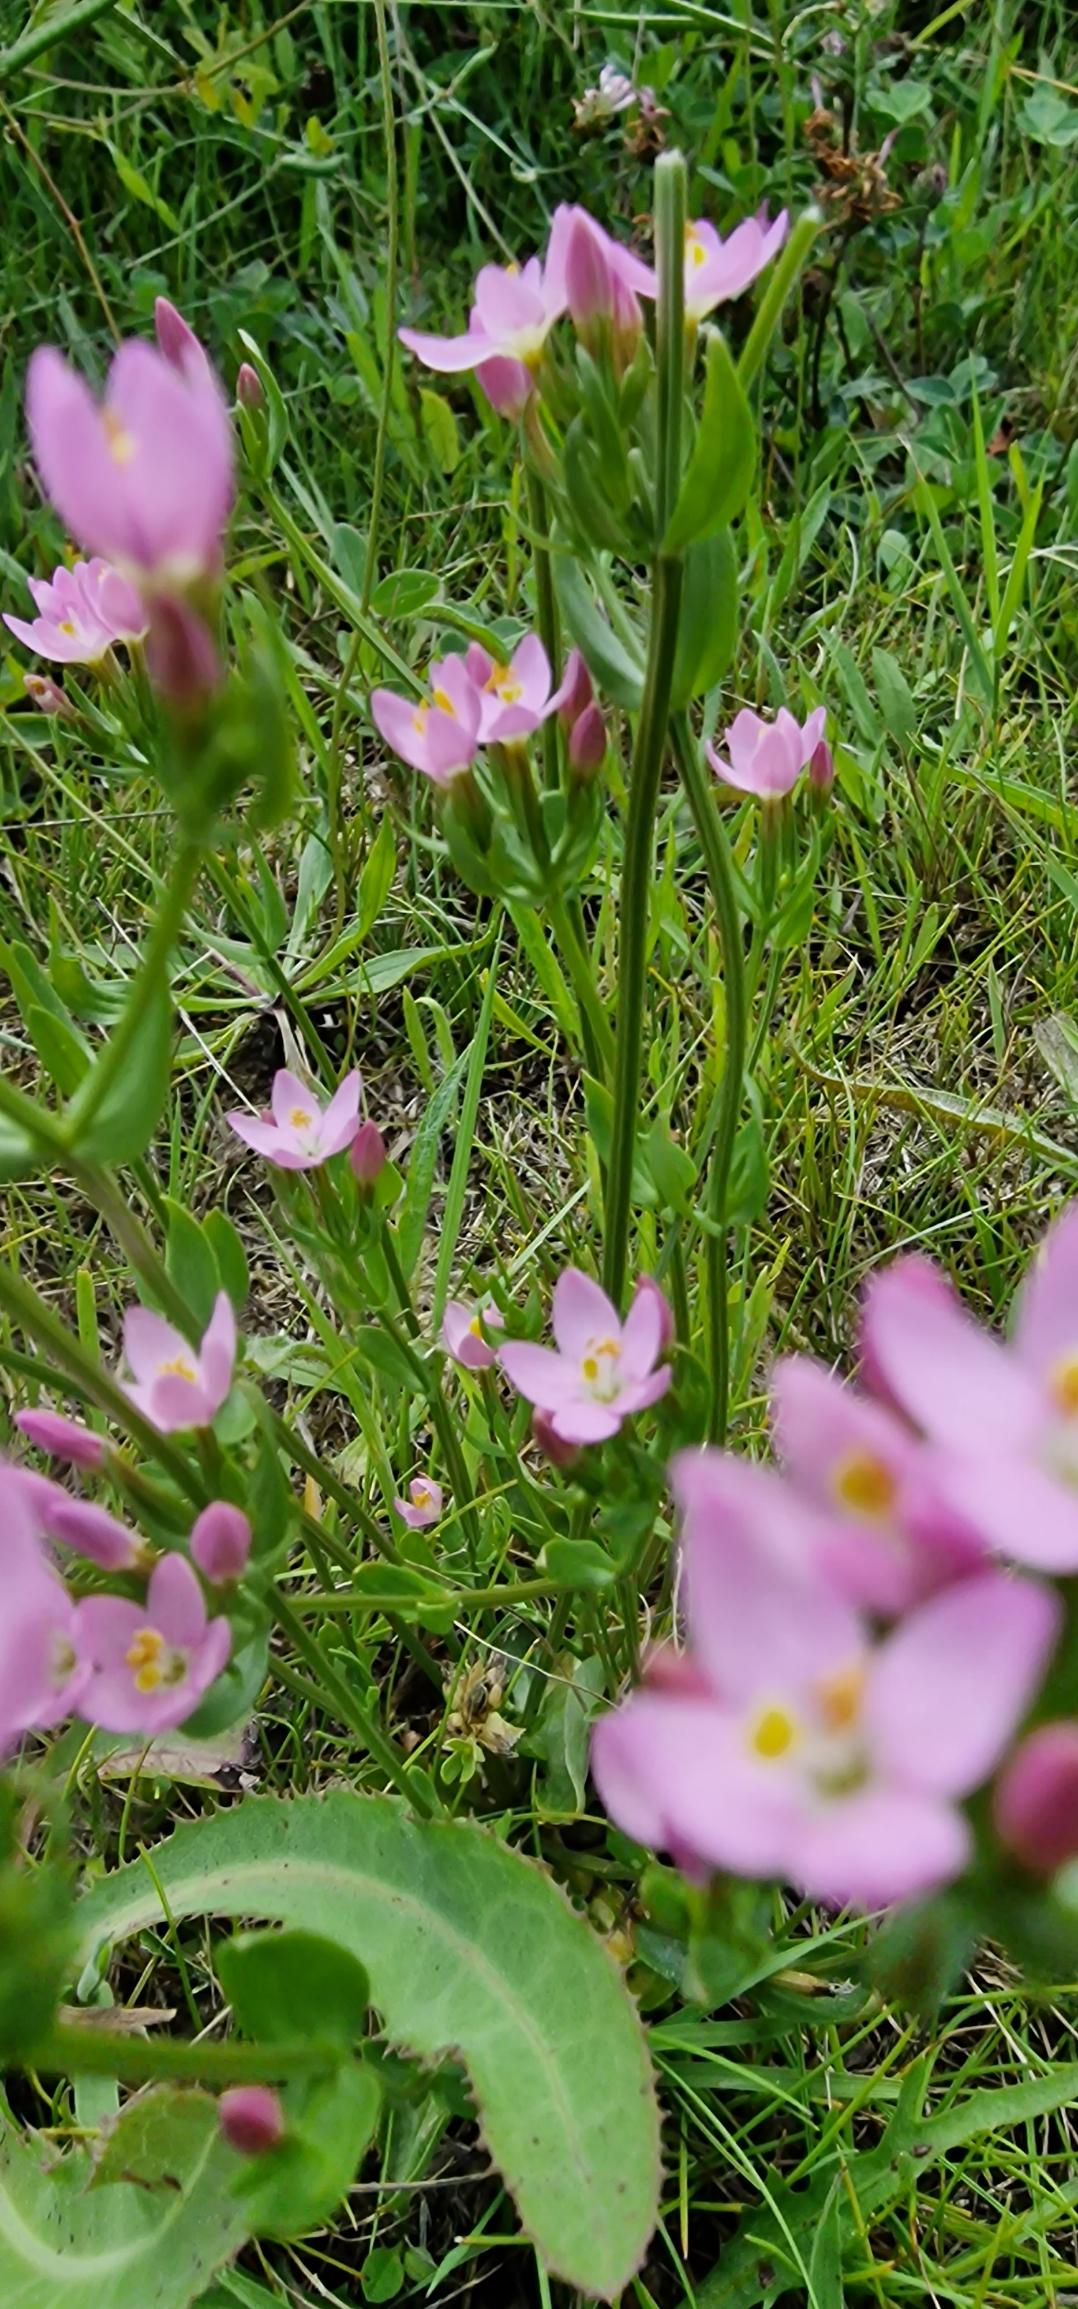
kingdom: Plantae
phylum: Tracheophyta
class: Magnoliopsida
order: Gentianales
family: Gentianaceae
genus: Centaurium
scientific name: Centaurium erythraea
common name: Mark-tusindgylden
